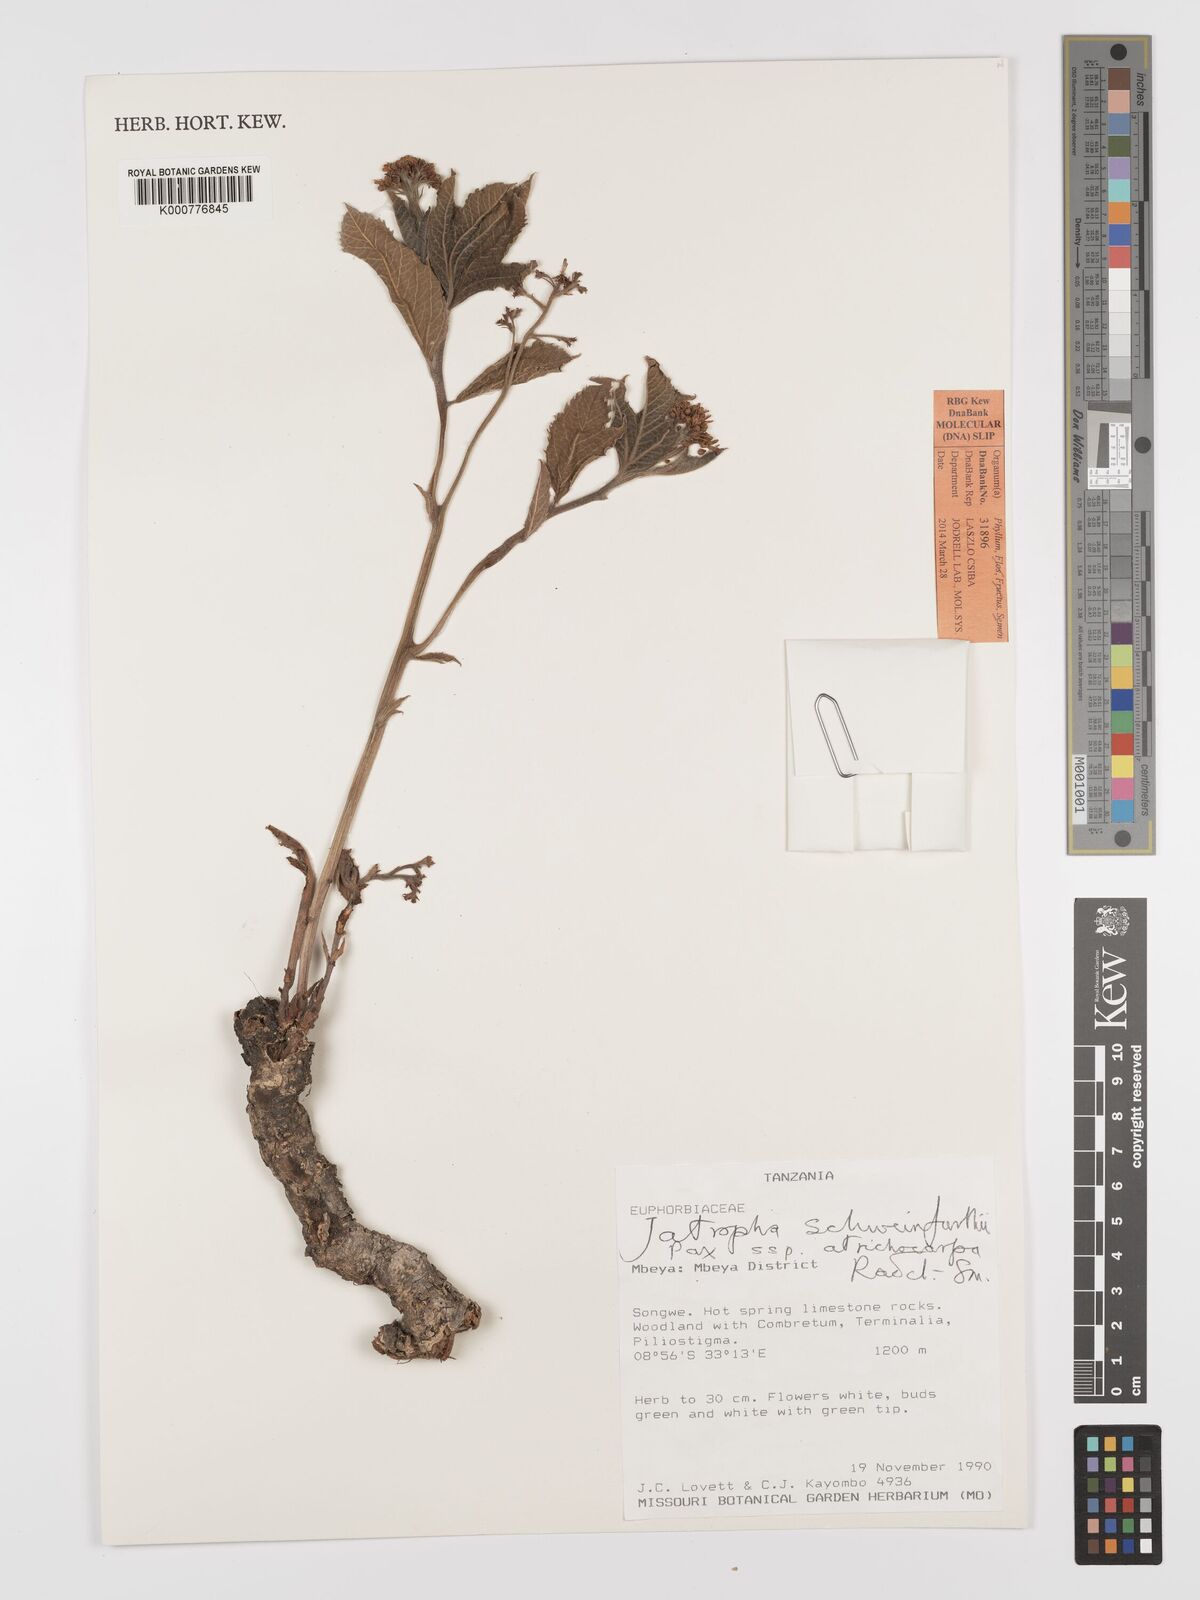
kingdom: Plantae
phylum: Tracheophyta
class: Magnoliopsida
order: Malpighiales
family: Euphorbiaceae
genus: Jatropha
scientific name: Jatropha schweinfurthii
